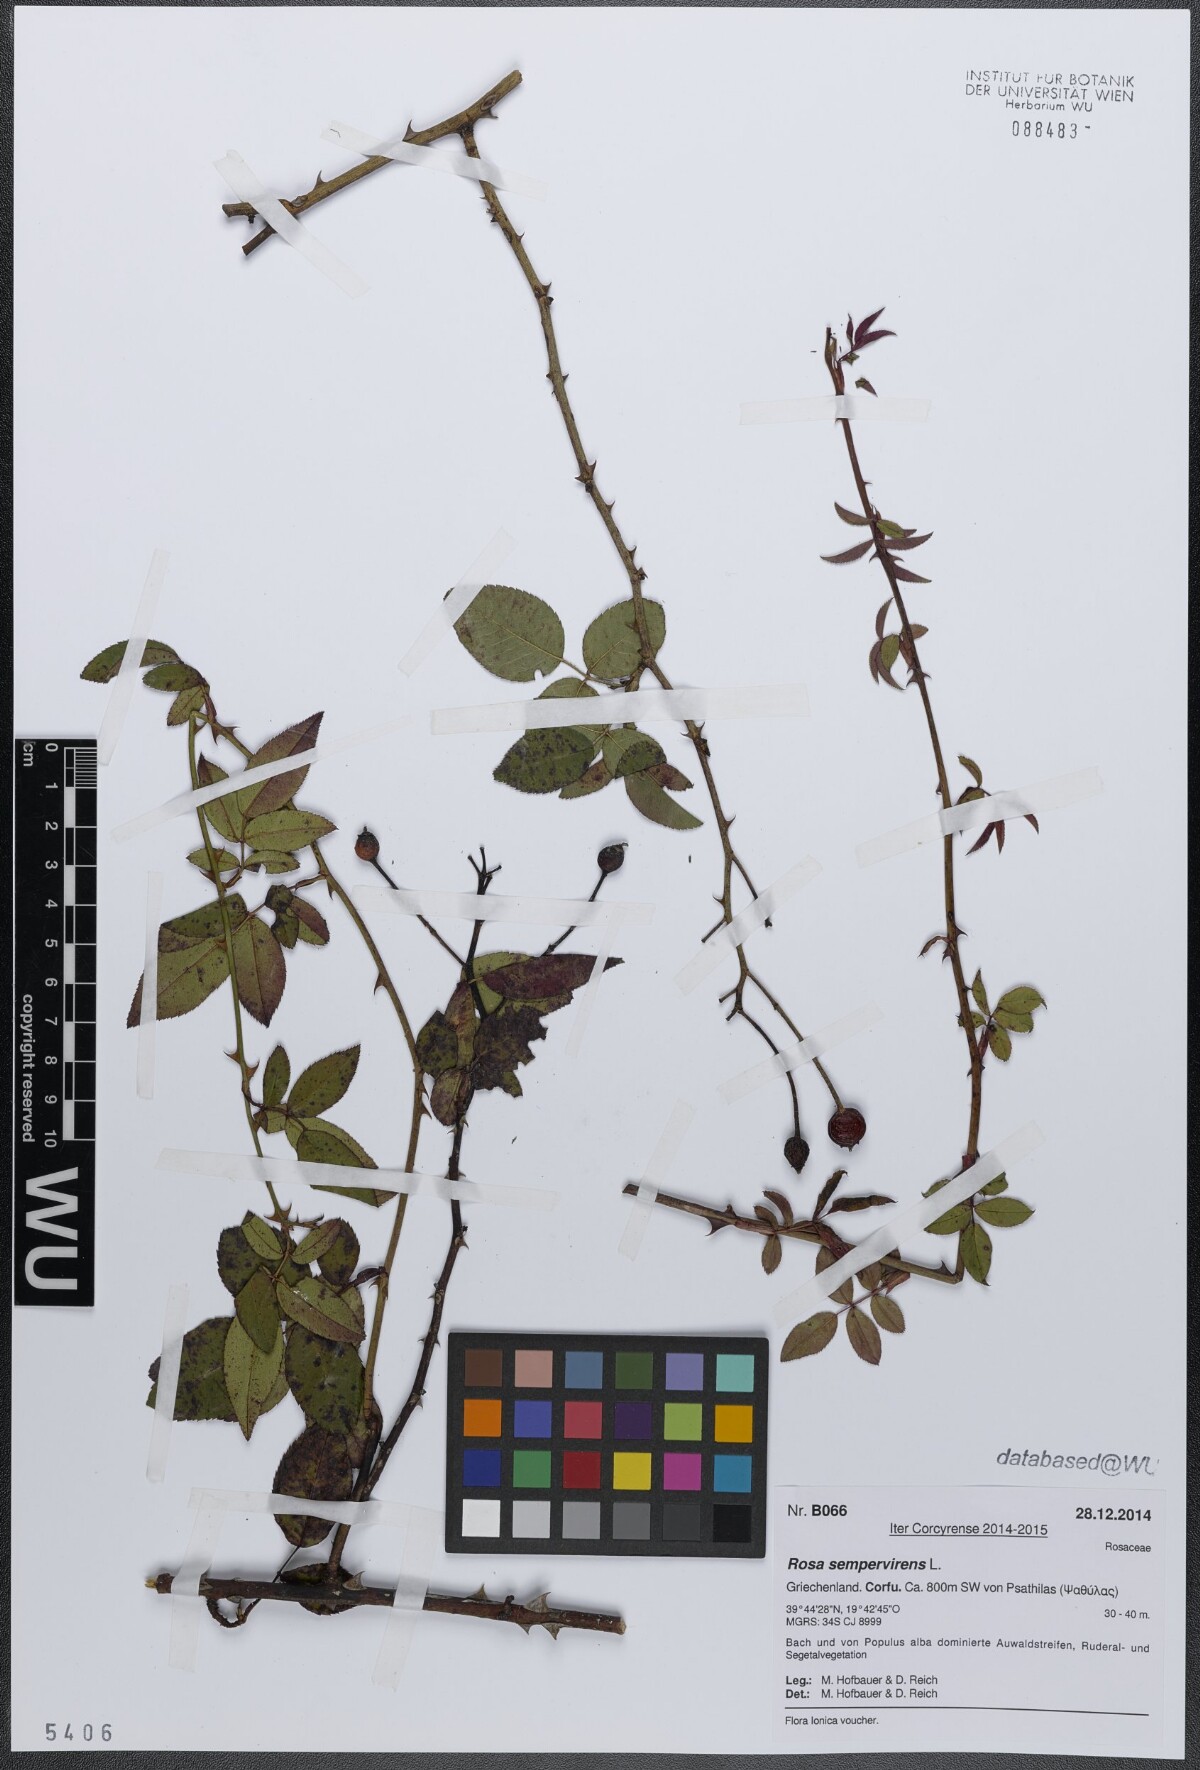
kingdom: Plantae
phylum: Tracheophyta
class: Magnoliopsida
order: Rosales
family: Rosaceae
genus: Rosa
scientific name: Rosa sempervirens
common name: Evergreen rose
